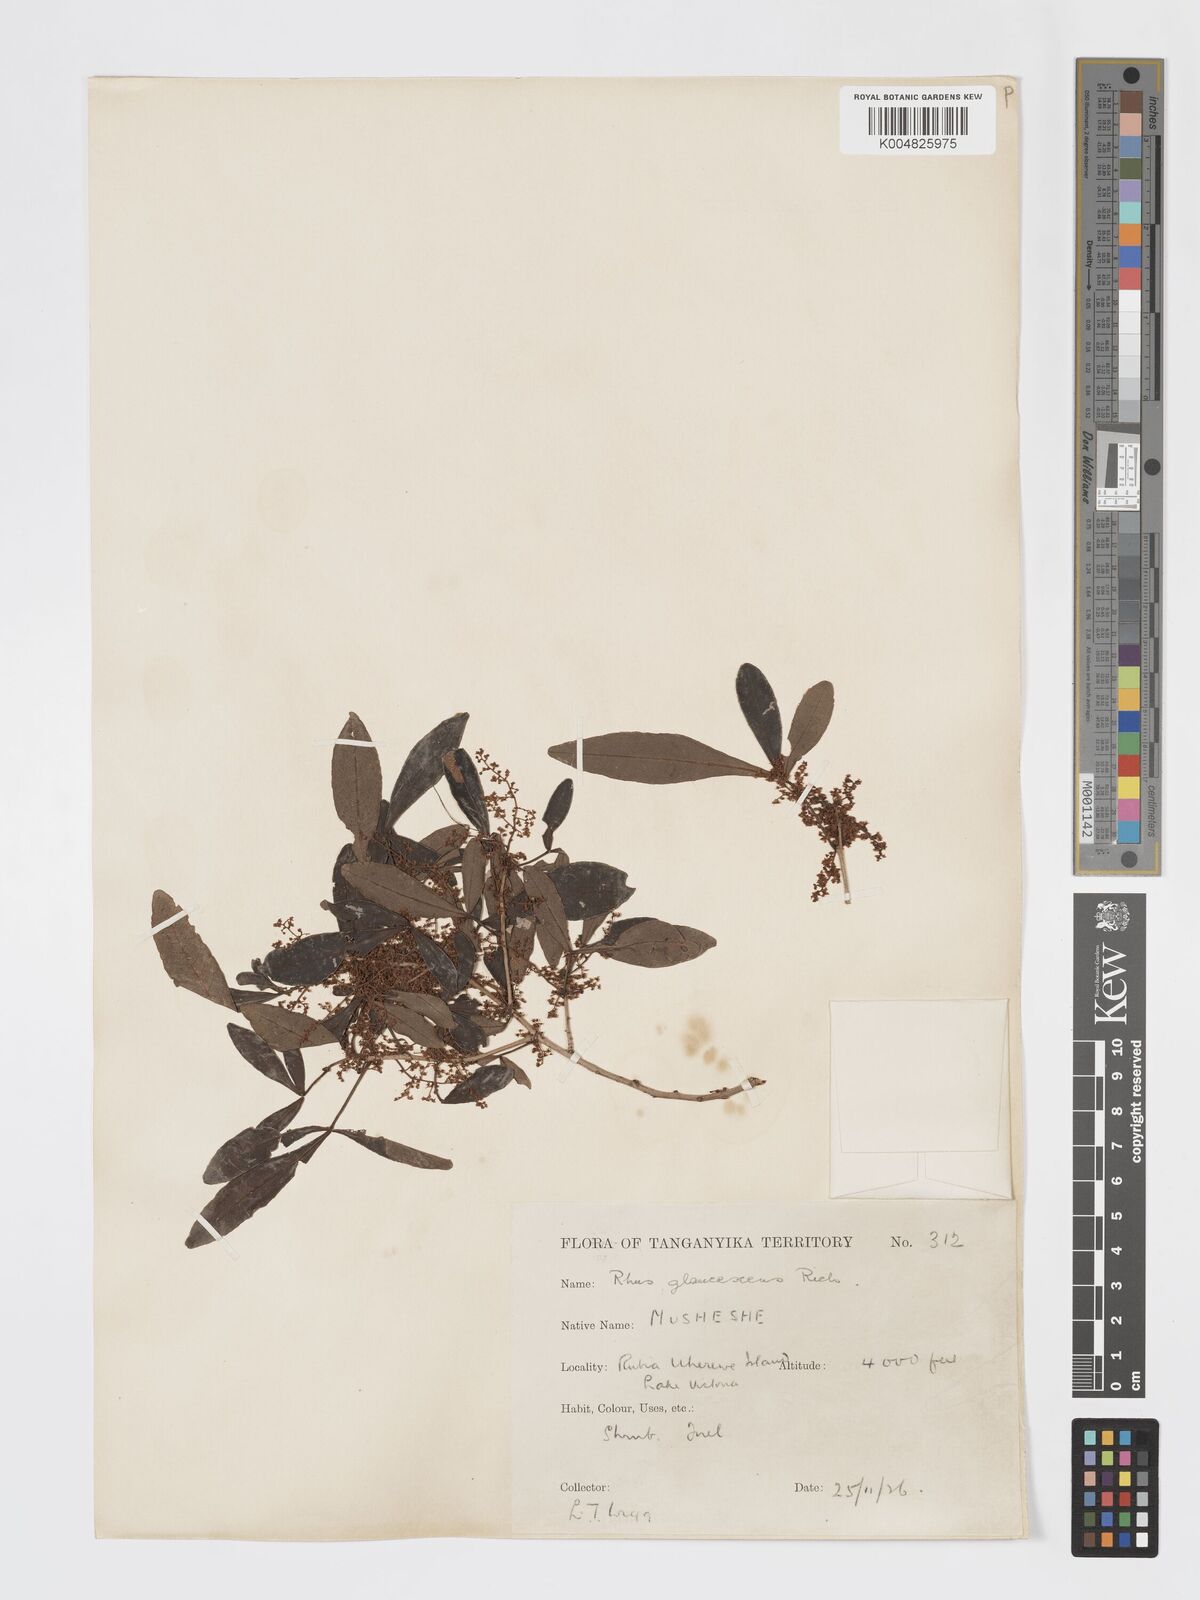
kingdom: Plantae
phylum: Tracheophyta
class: Magnoliopsida
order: Sapindales
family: Anacardiaceae
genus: Searsia
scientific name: Searsia natalensis
